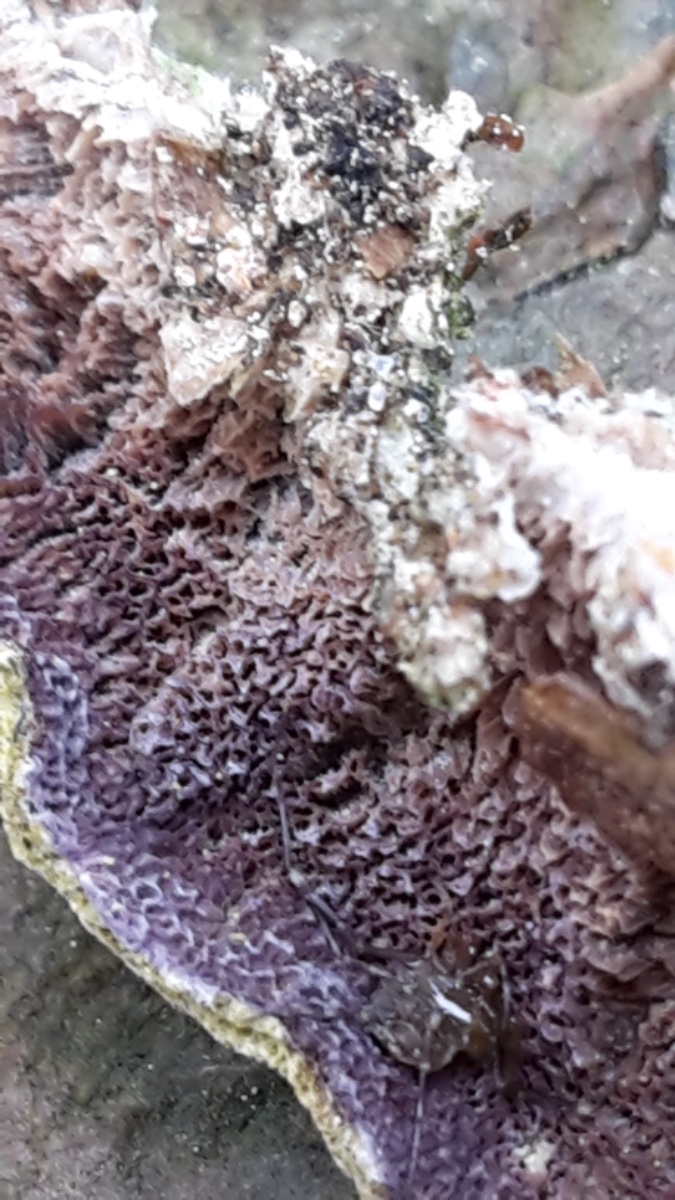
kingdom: Fungi
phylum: Basidiomycota
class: Agaricomycetes
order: Hymenochaetales
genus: Trichaptum
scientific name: Trichaptum abietinum
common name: almindelig violporesvamp
